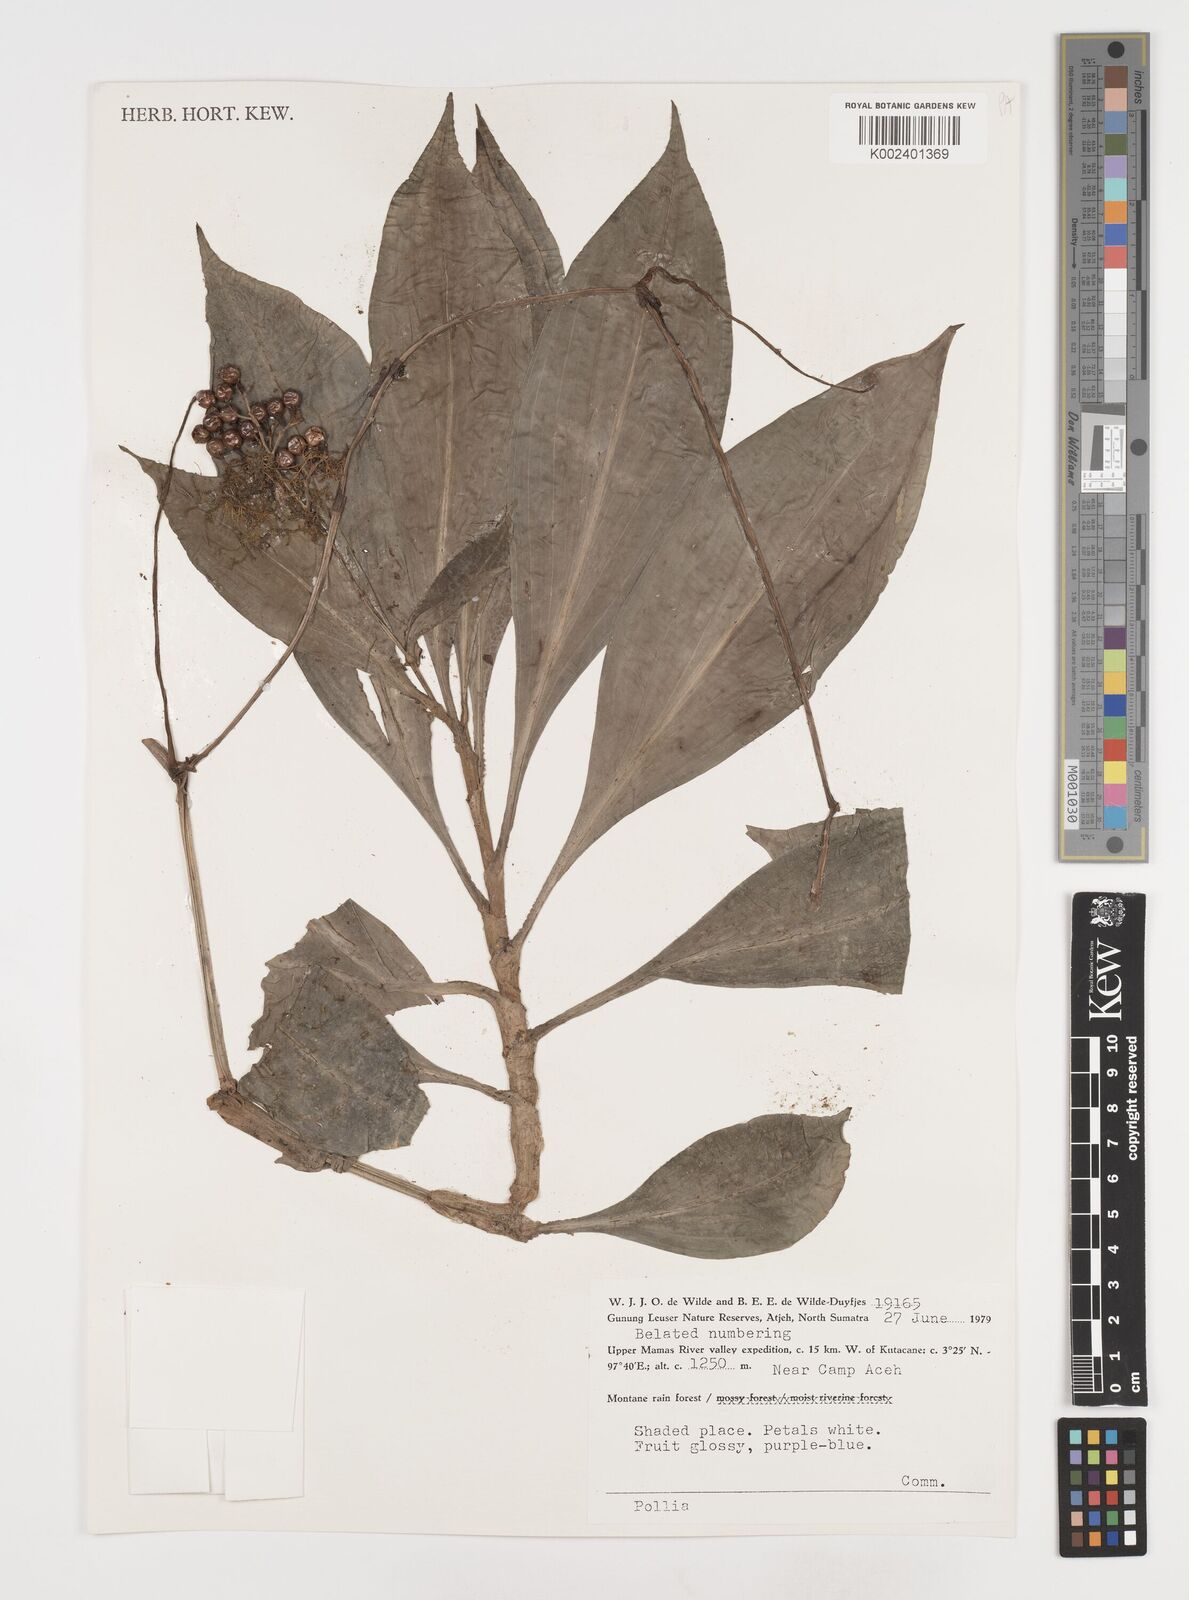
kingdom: Plantae
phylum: Tracheophyta
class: Liliopsida
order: Commelinales
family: Commelinaceae
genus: Pollia
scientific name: Pollia
